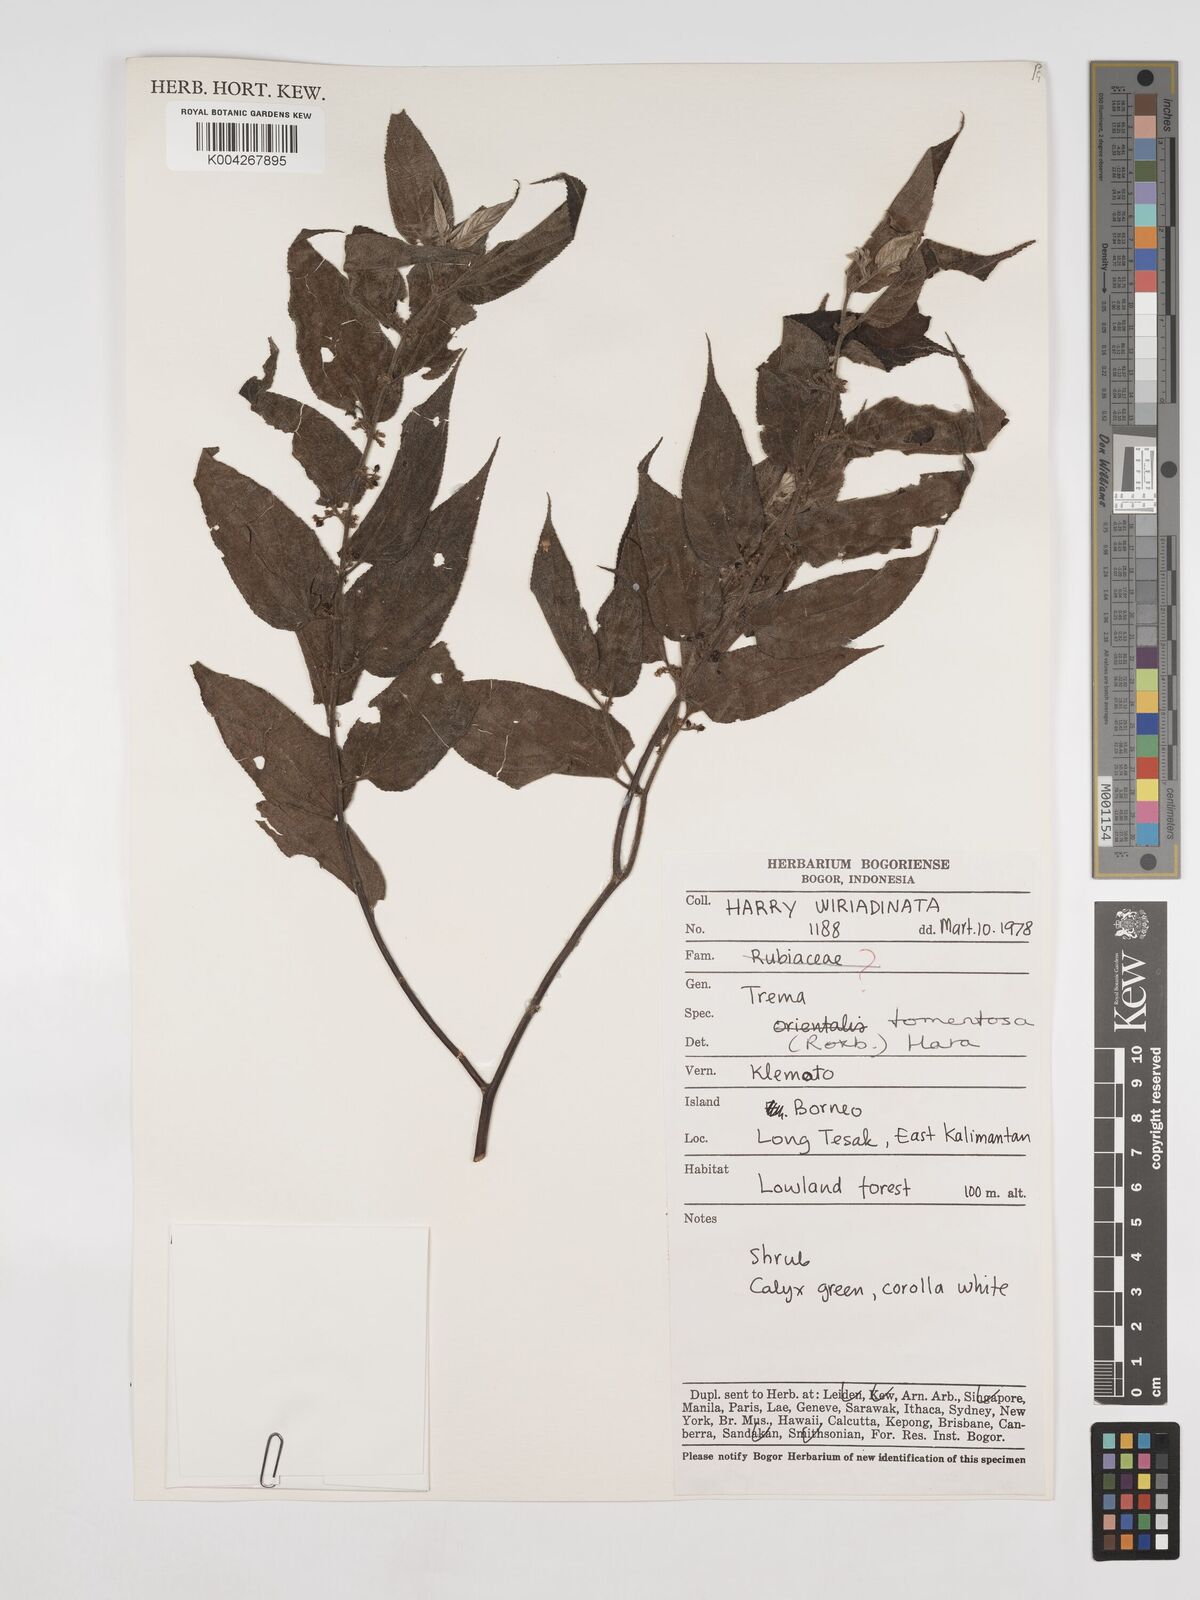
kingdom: Plantae
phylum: Tracheophyta
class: Magnoliopsida
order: Rosales
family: Cannabaceae
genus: Trema
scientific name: Trema tomentosum
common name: Peach-leaf-poisonbush
